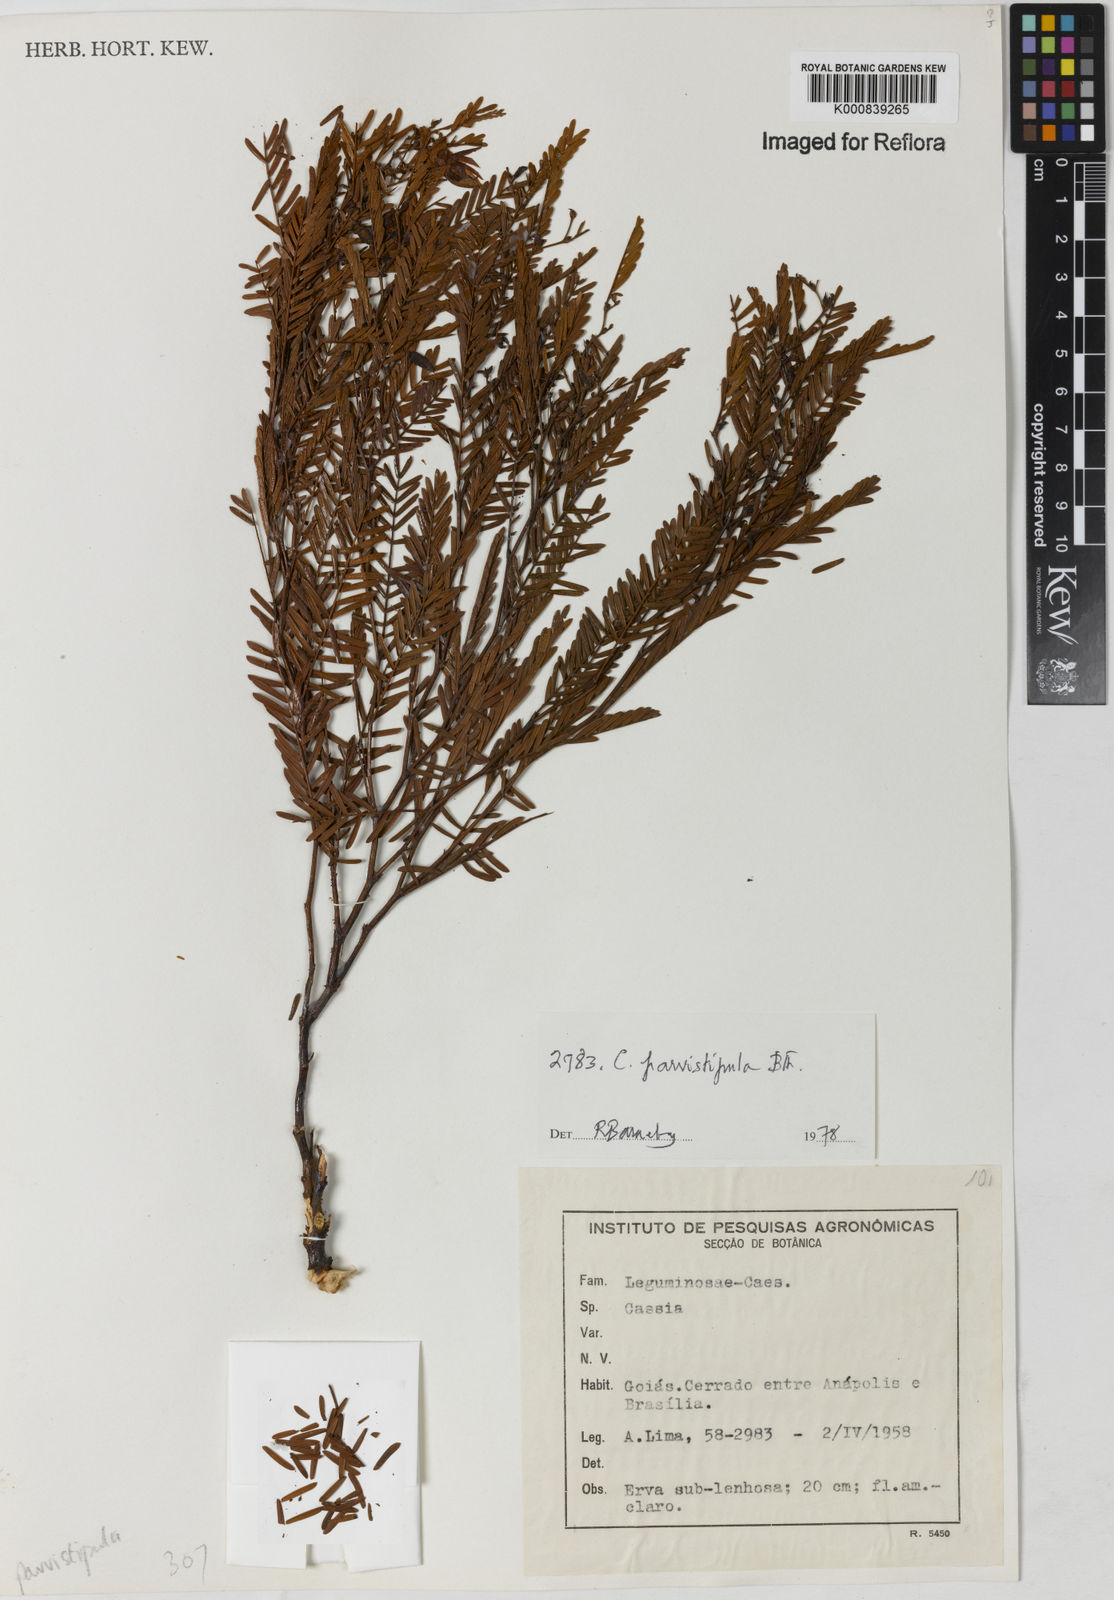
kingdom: Plantae
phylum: Tracheophyta
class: Magnoliopsida
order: Fabales
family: Fabaceae
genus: Chamaecrista
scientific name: Chamaecrista parvistipula
